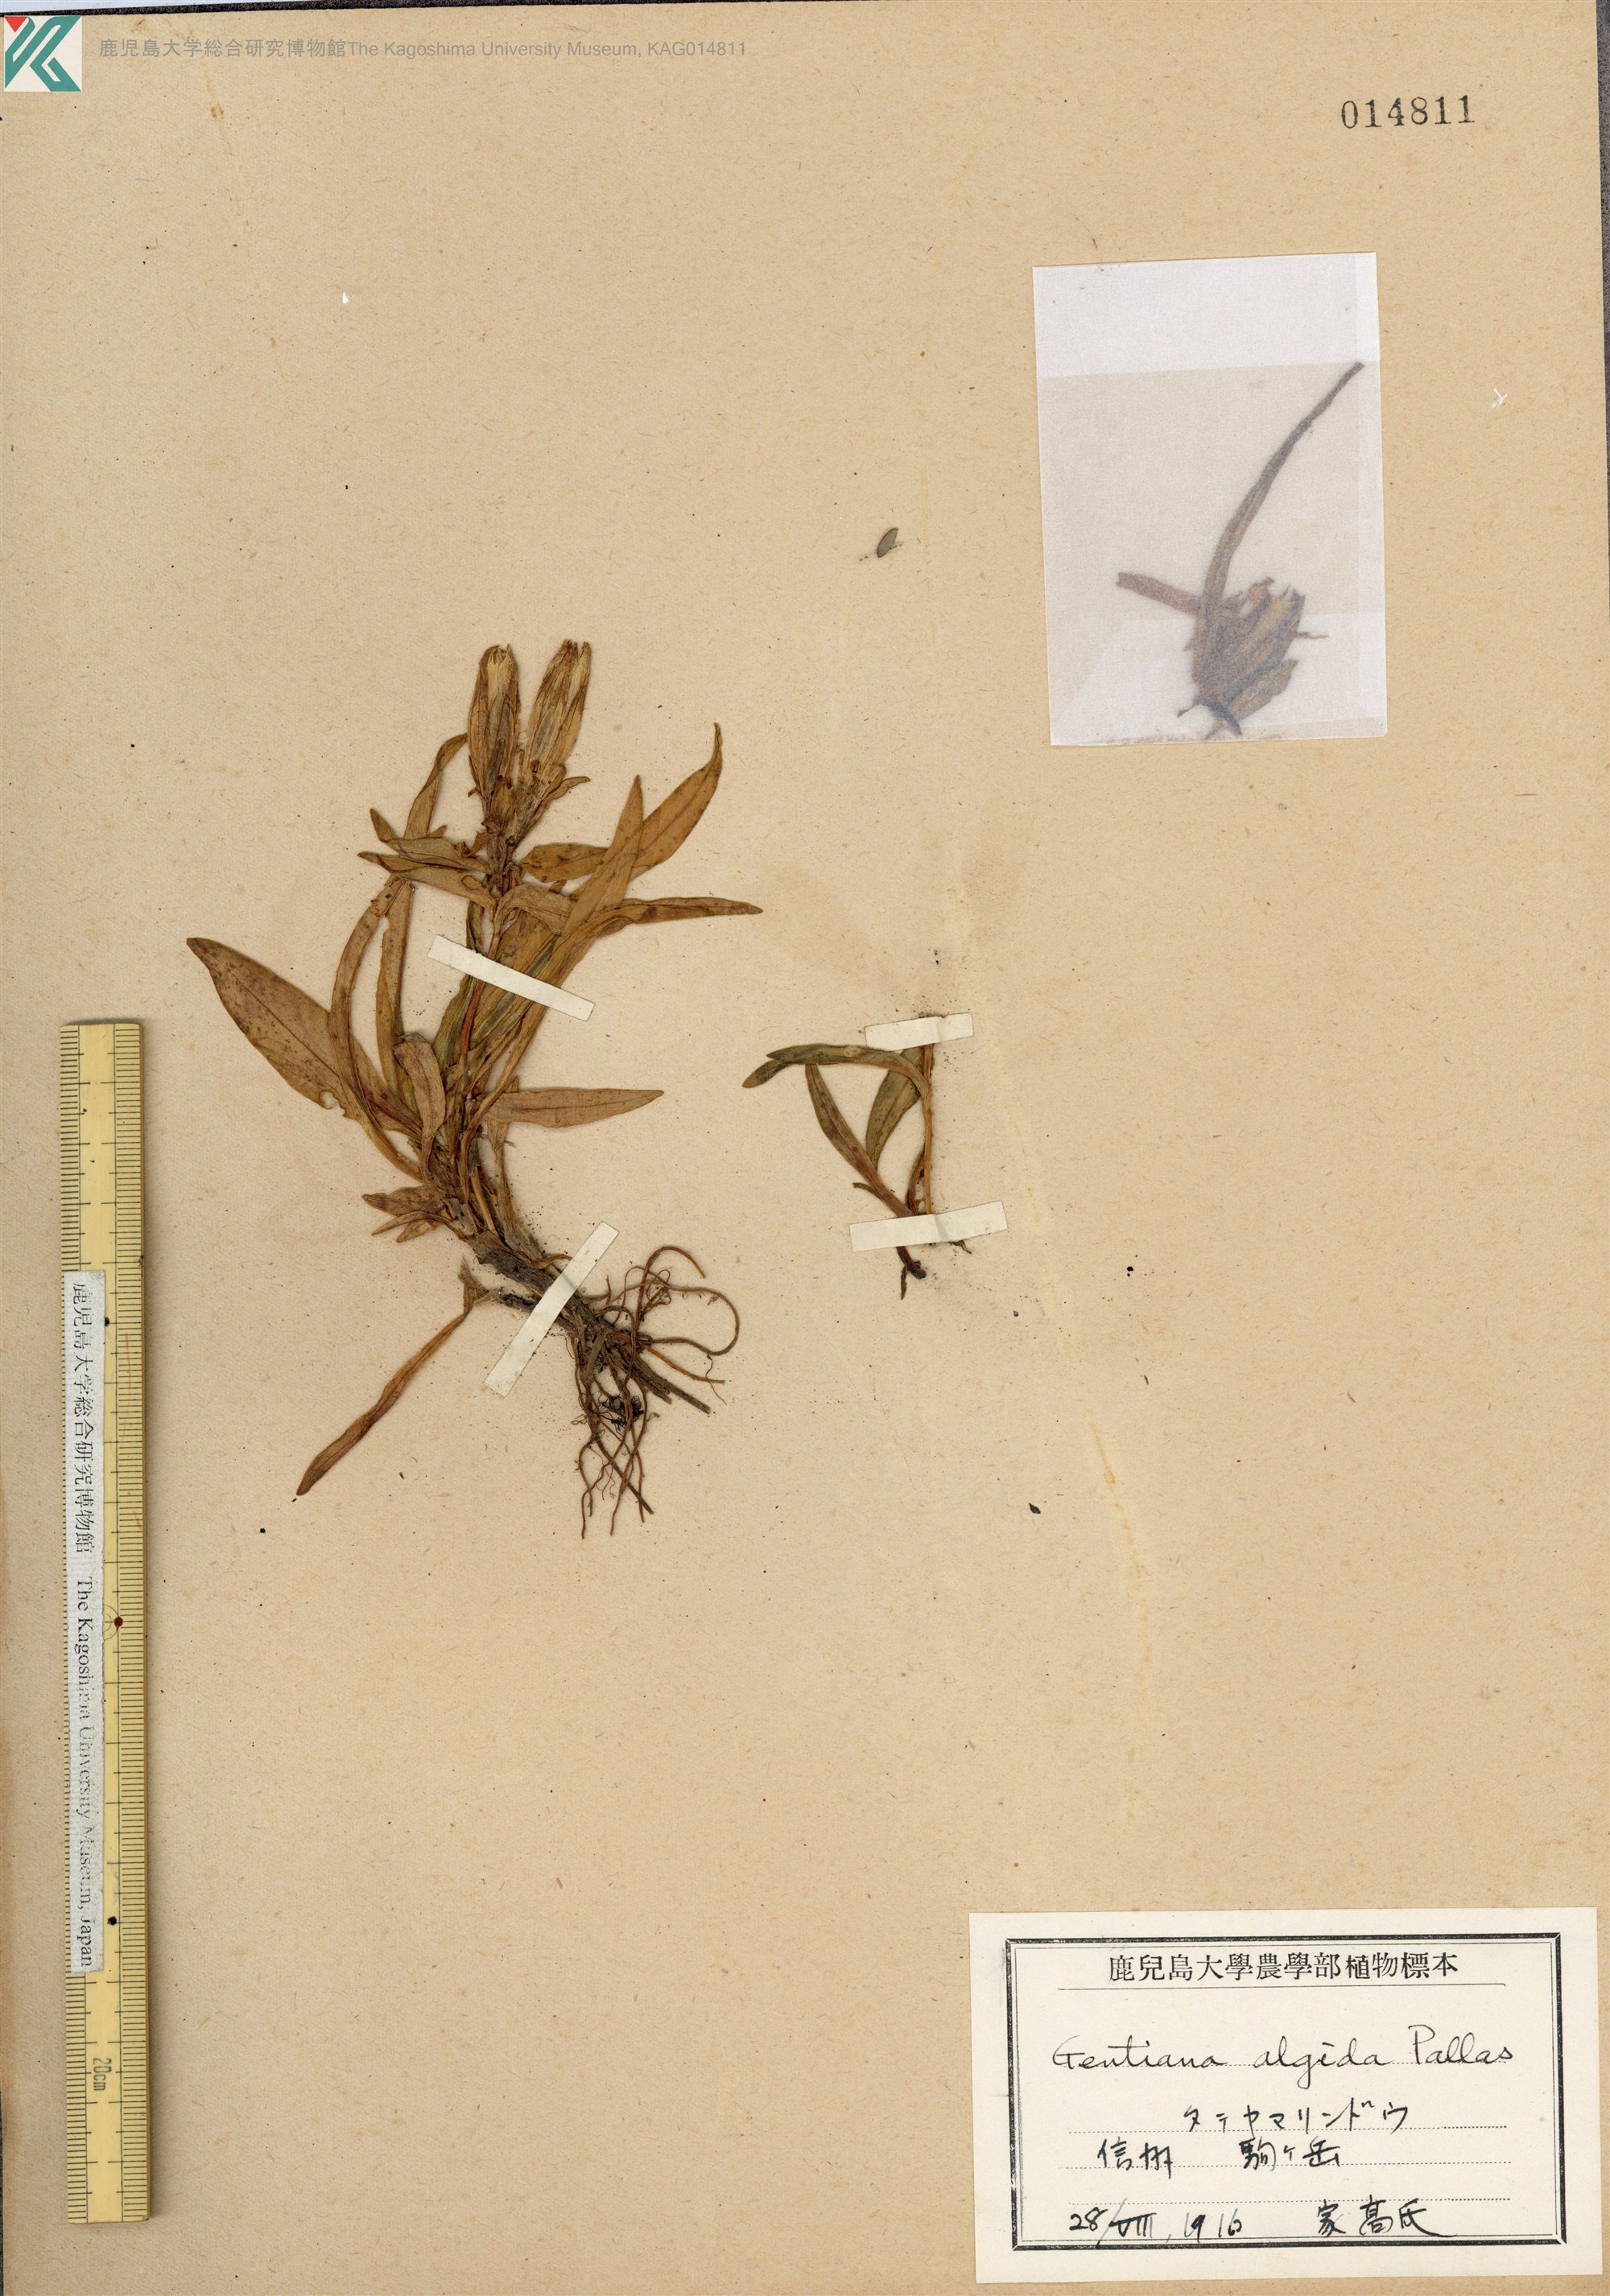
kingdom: Plantae
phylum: Tracheophyta
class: Magnoliopsida
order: Gentianales
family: Gentianaceae
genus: Gentiana
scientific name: Gentiana algida
